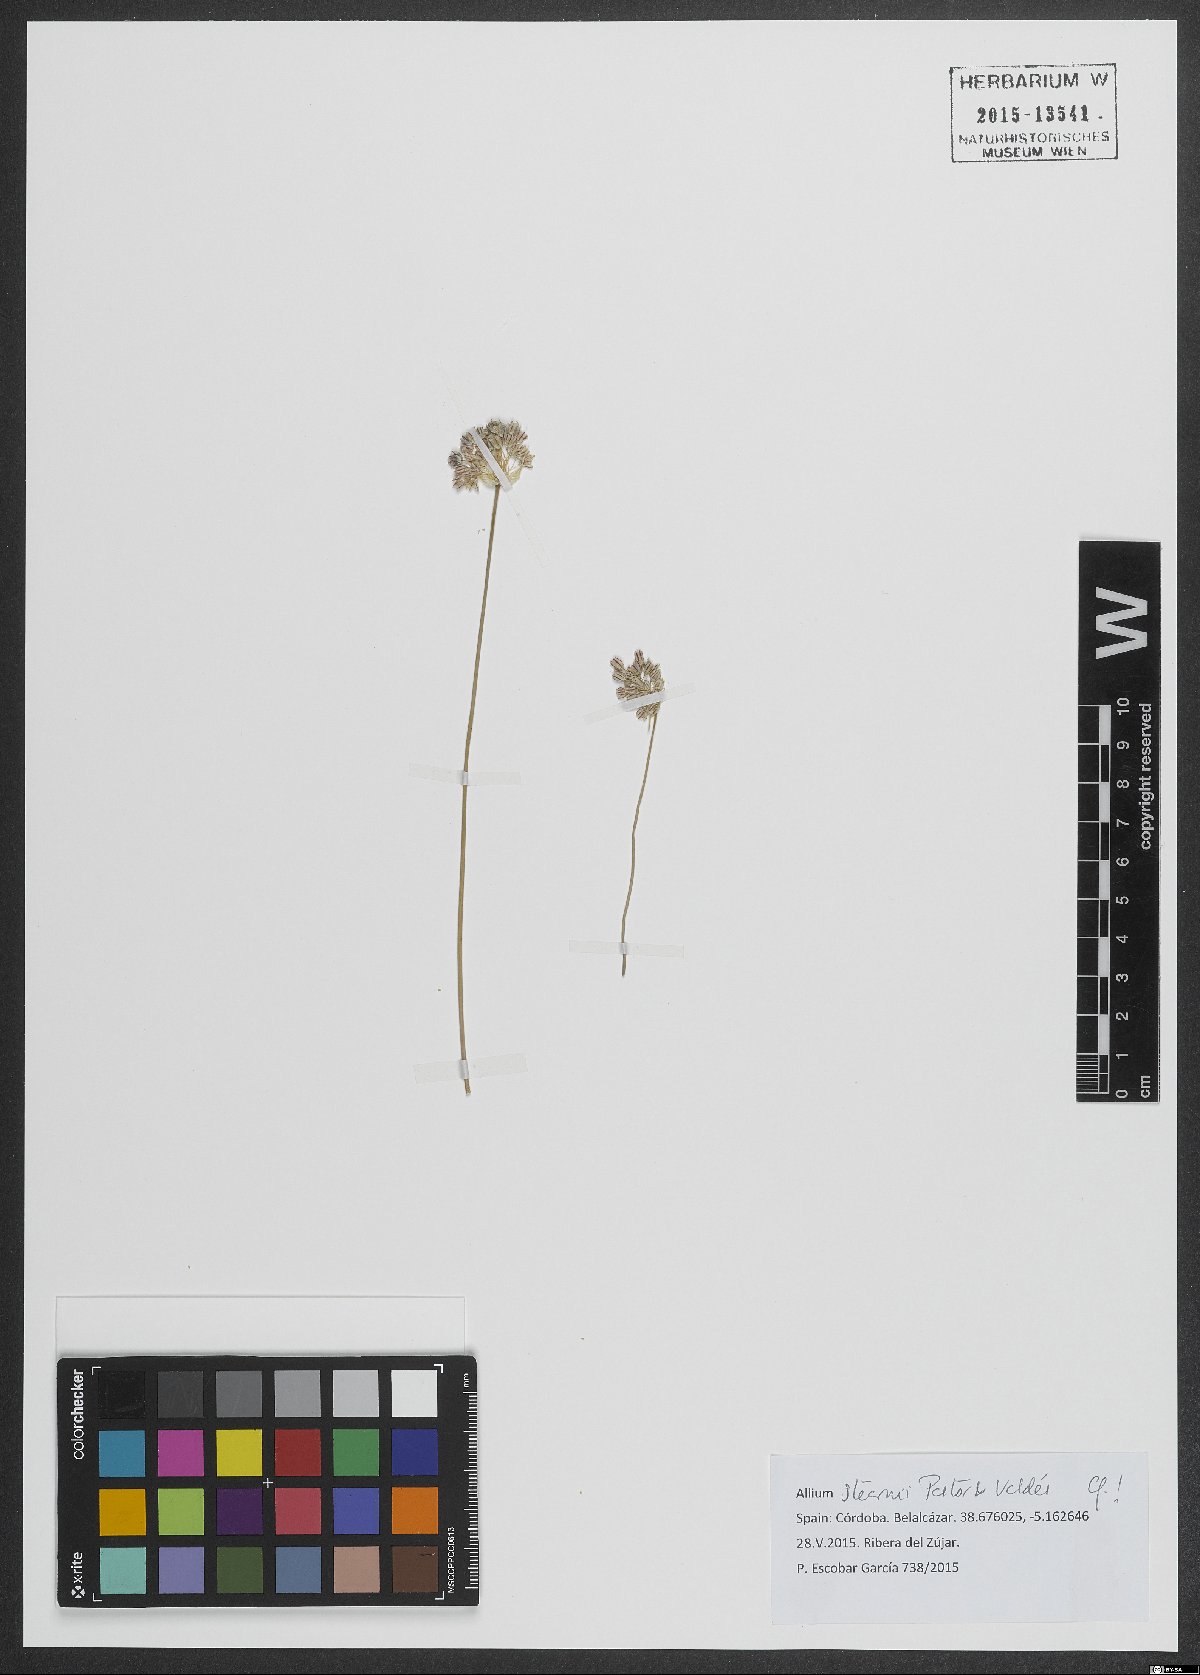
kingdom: Plantae
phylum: Tracheophyta
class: Liliopsida
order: Asparagales
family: Amaryllidaceae
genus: Allium
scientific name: Allium stearnii
